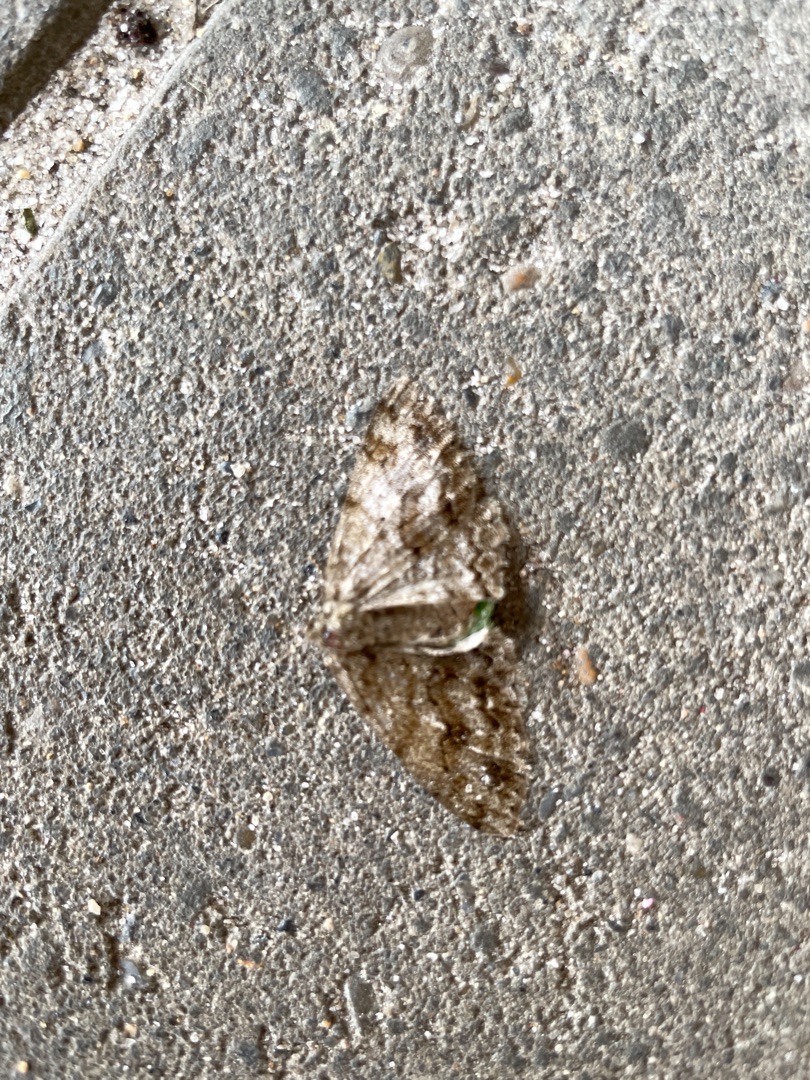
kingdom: Animalia
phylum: Arthropoda
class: Insecta
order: Lepidoptera
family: Geometridae
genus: Ectropis
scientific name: Ectropis crepuscularia
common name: Birke-barkmåler
